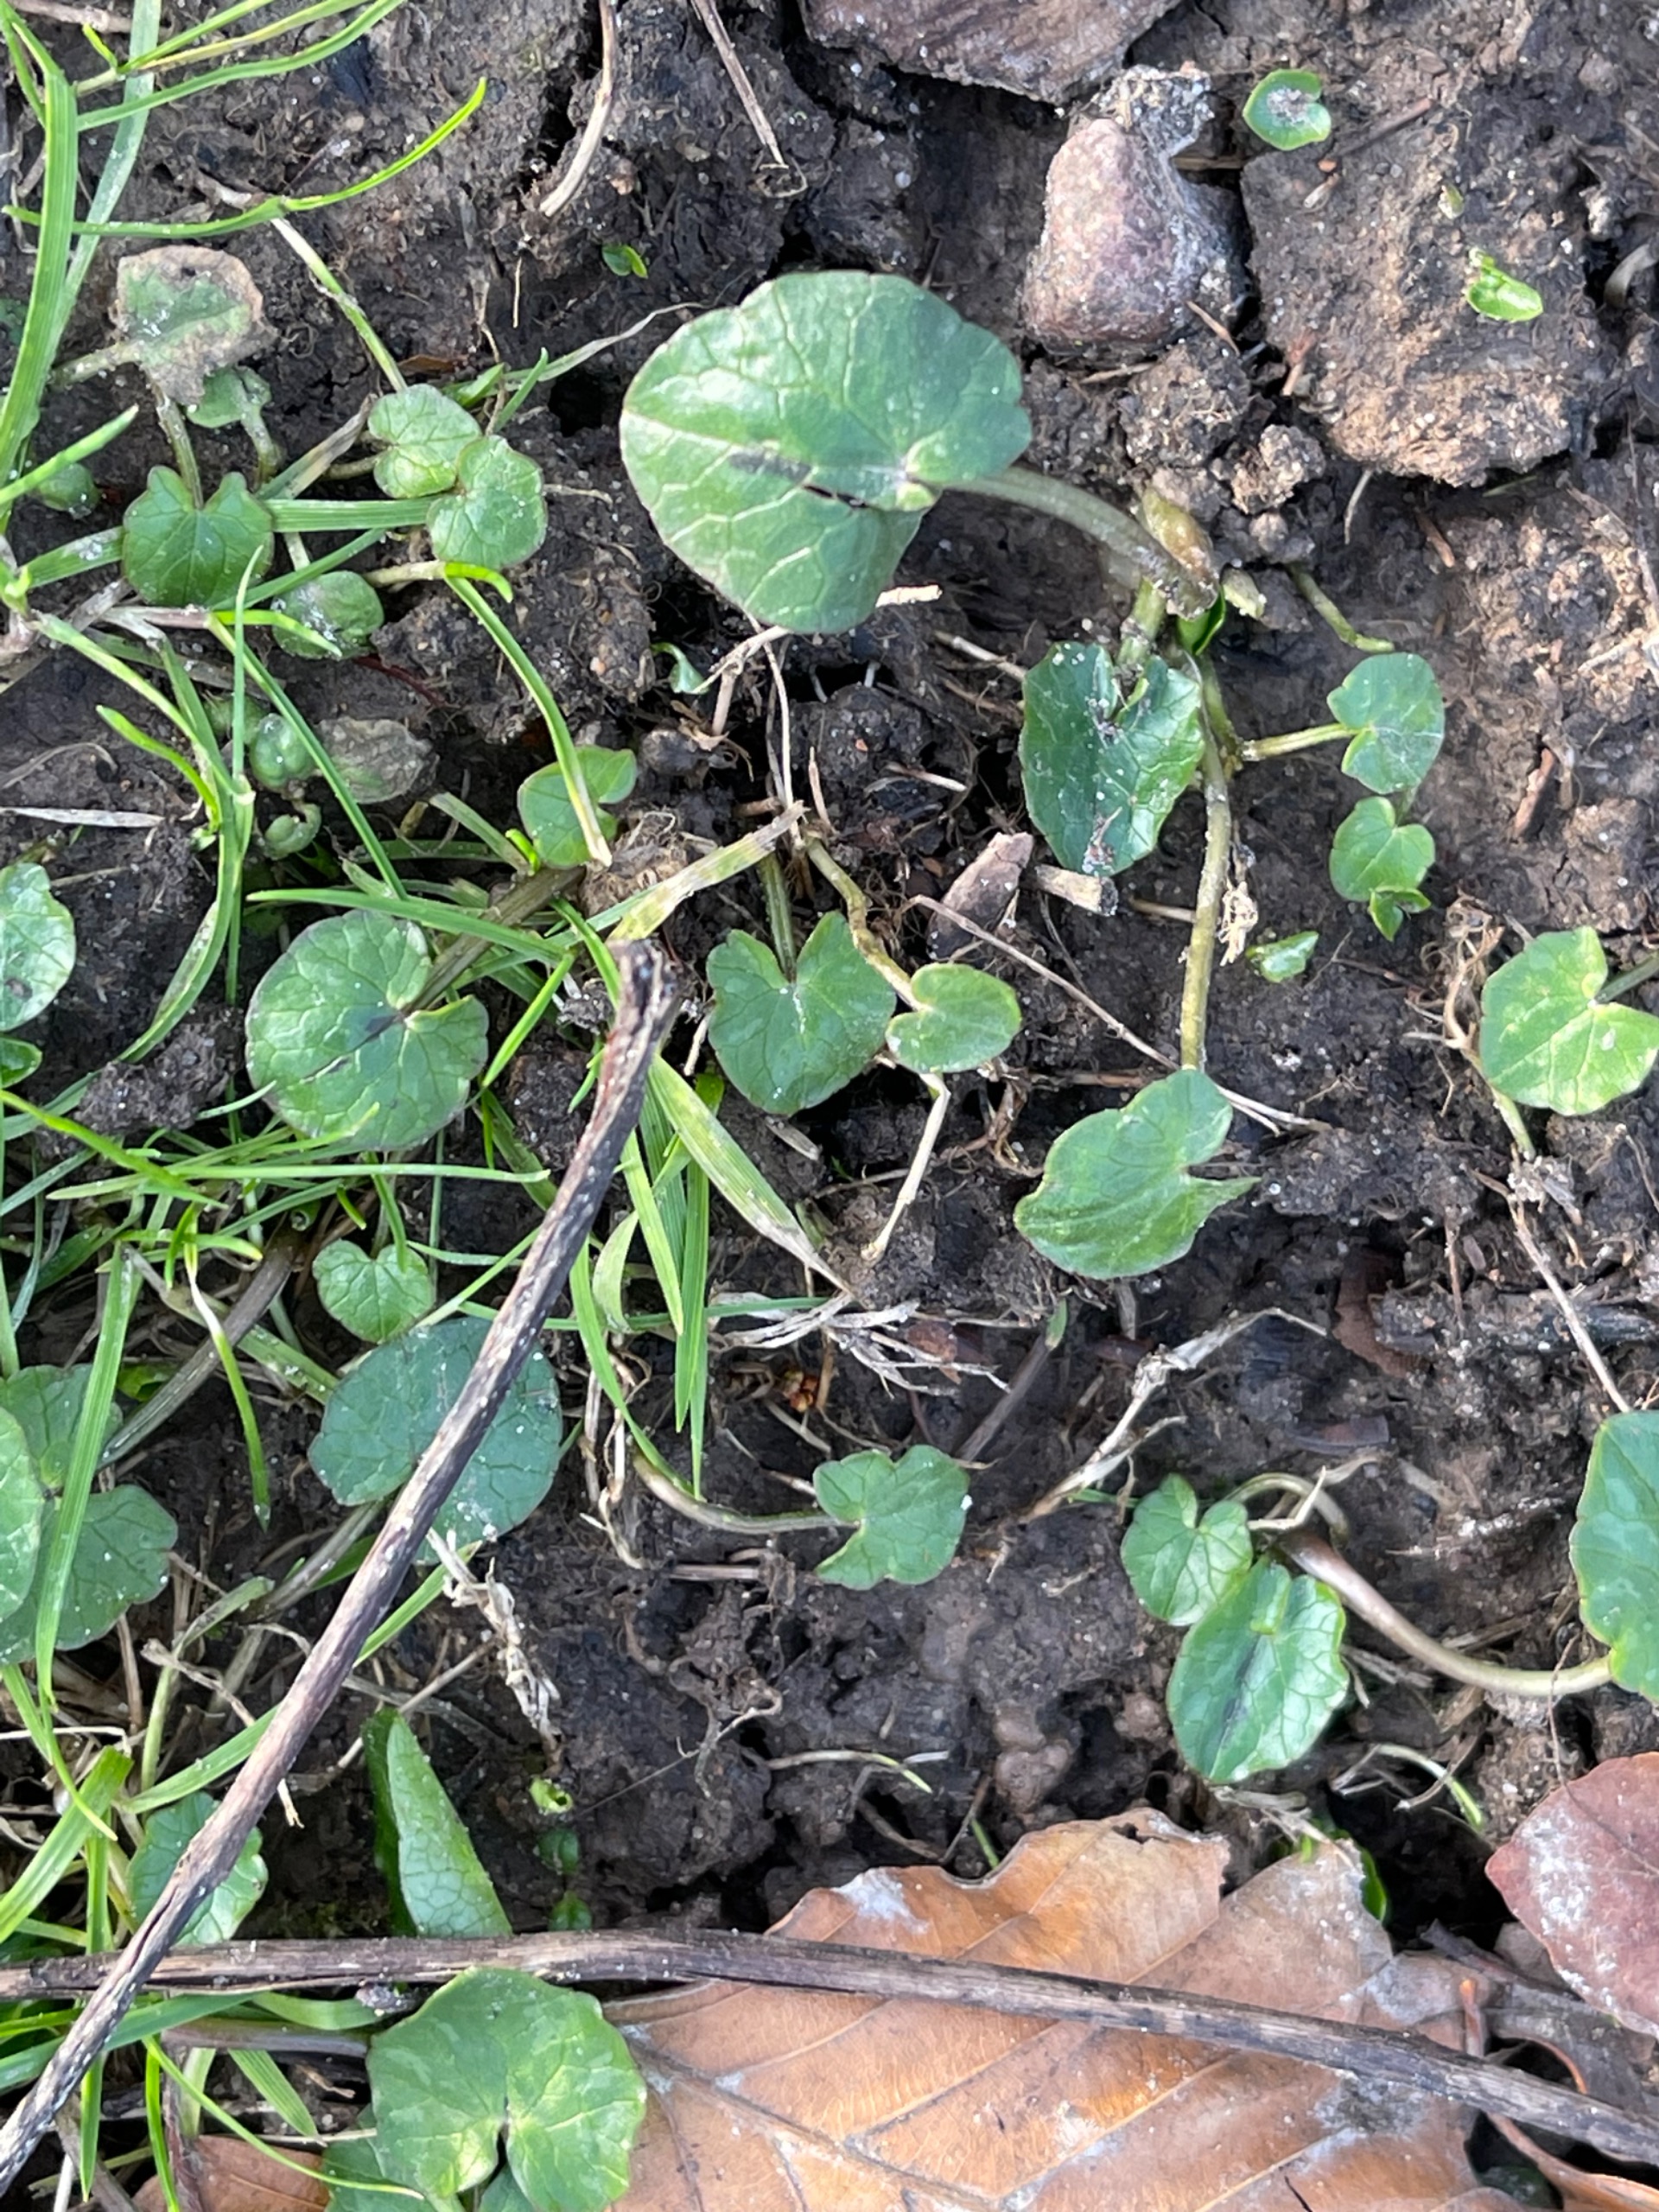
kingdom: Plantae
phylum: Tracheophyta
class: Magnoliopsida
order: Ranunculales
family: Ranunculaceae
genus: Ficaria
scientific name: Ficaria verna
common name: Vorterod
